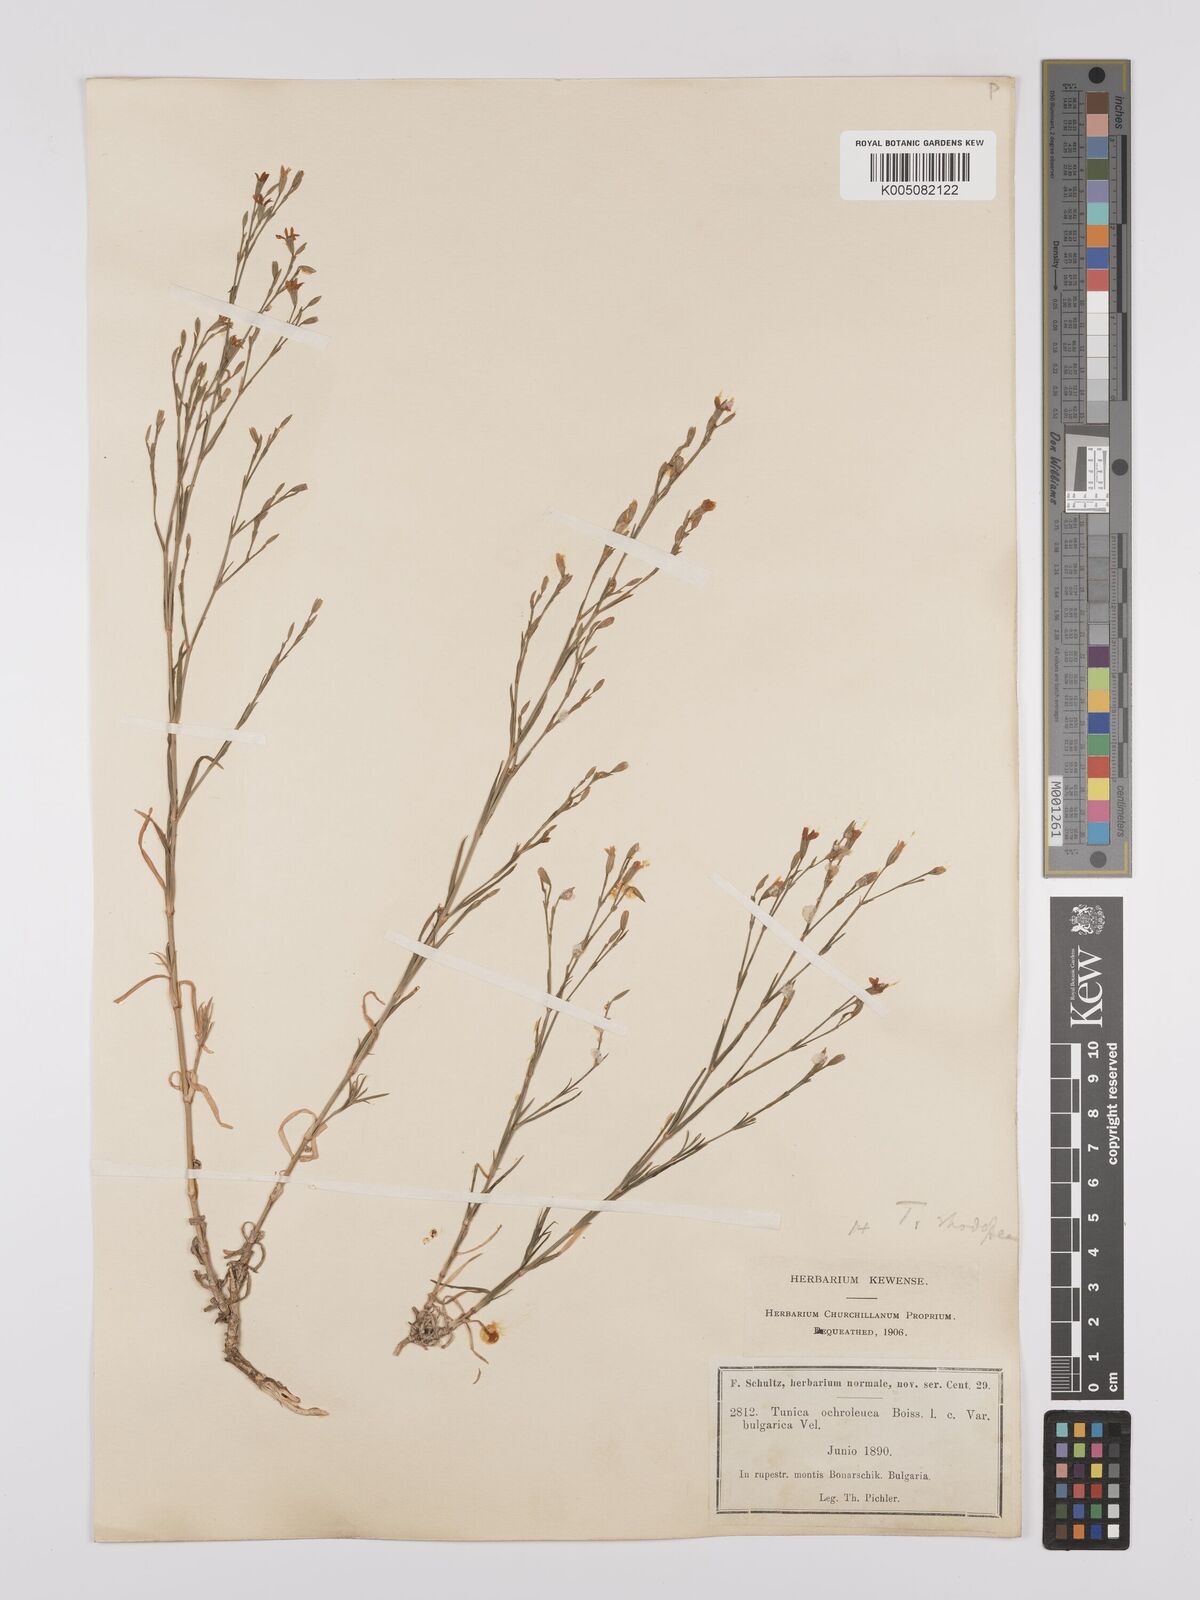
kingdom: Plantae
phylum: Tracheophyta
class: Magnoliopsida
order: Caryophyllales
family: Caryophyllaceae
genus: Dianthus
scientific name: Dianthus illyricus
